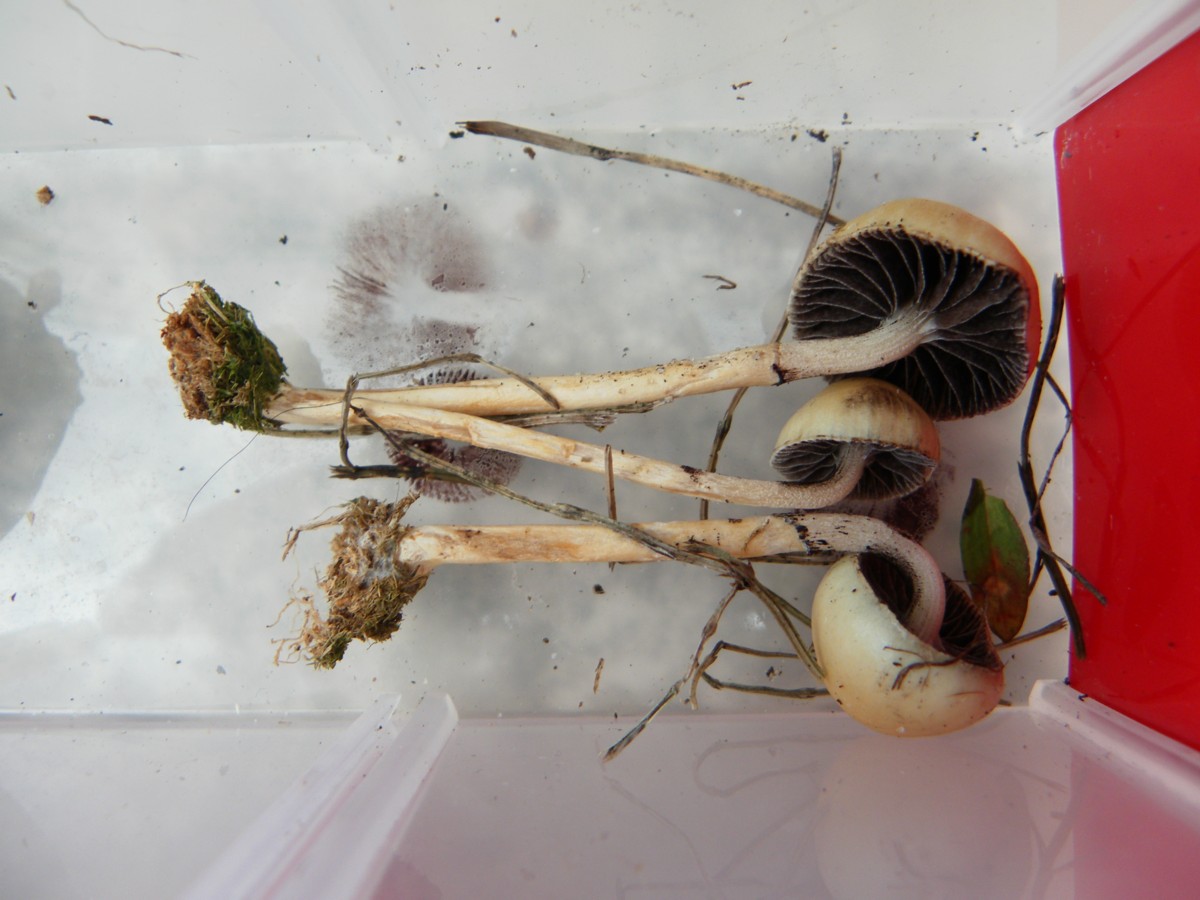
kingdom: Fungi
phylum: Basidiomycota
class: Agaricomycetes
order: Agaricales
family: Strophariaceae
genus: Protostropharia
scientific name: Protostropharia semiglobata
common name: halvkugleformet bredblad
